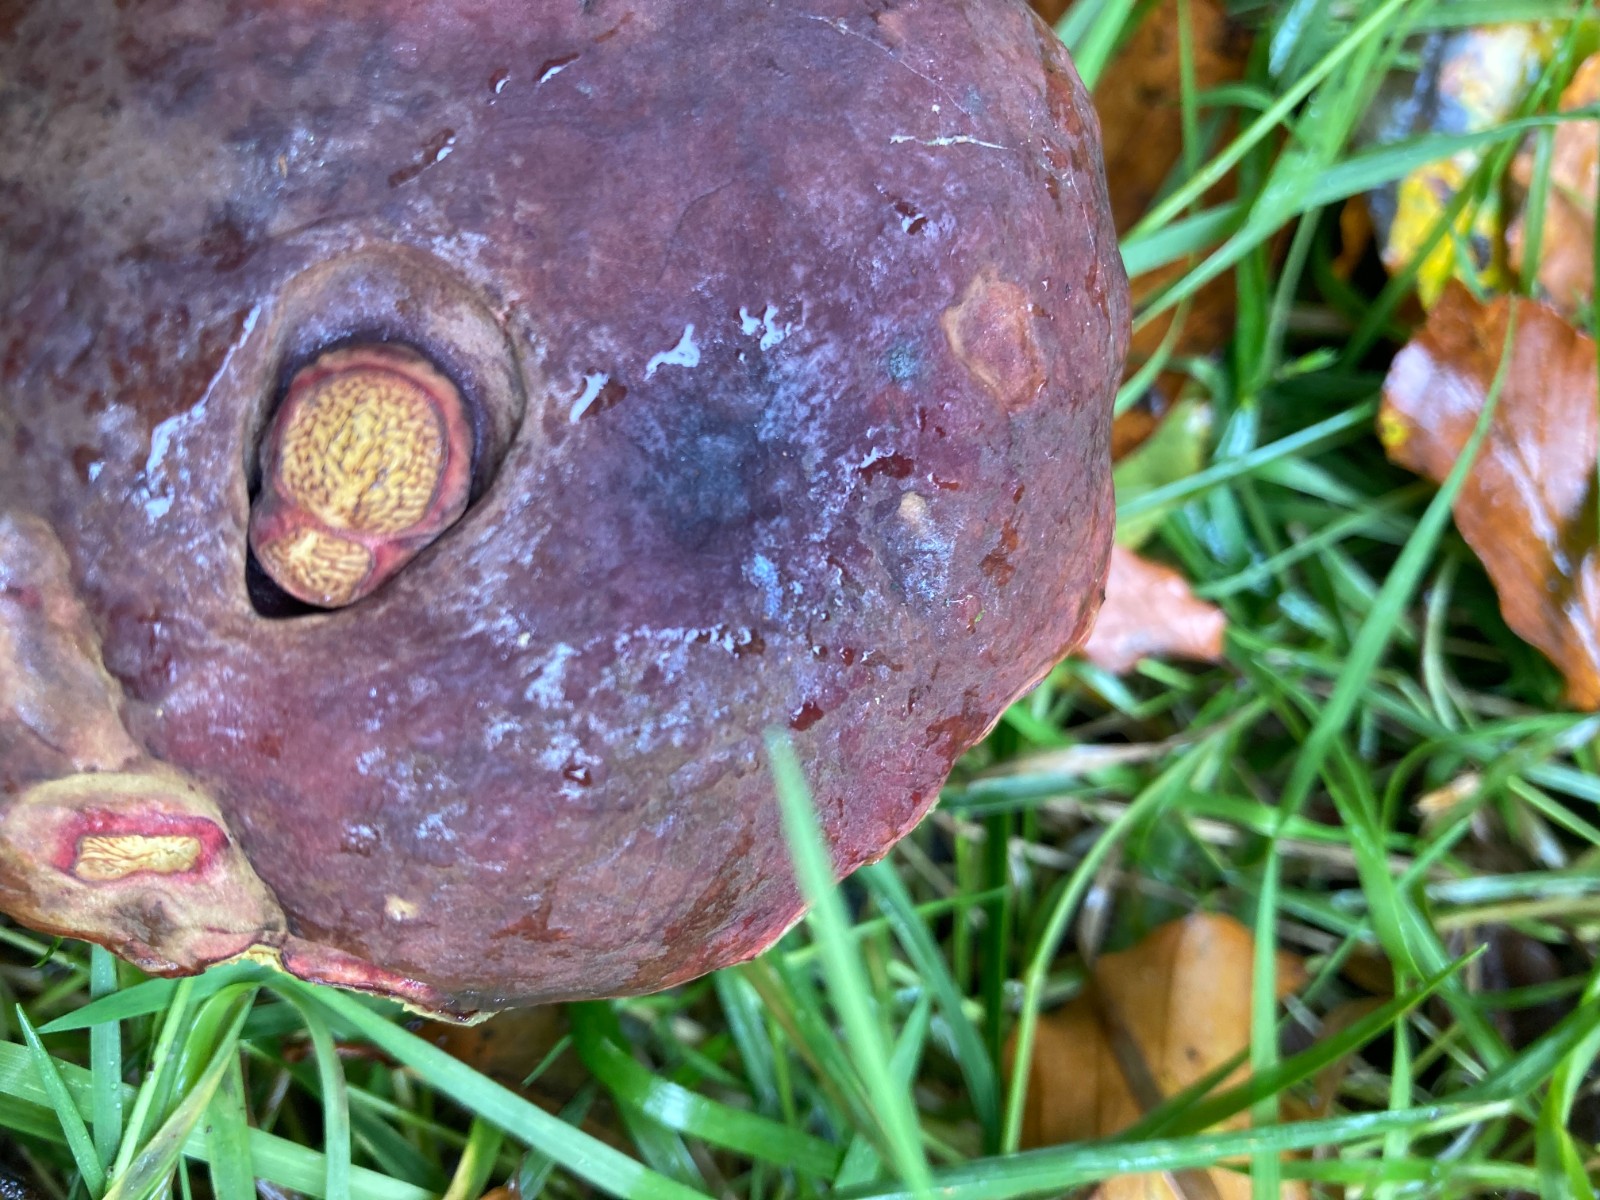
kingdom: Fungi
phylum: Basidiomycota
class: Agaricomycetes
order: Boletales
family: Boletaceae
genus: Xerocomellus
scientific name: Xerocomellus pruinatus
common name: dugget rørhat
